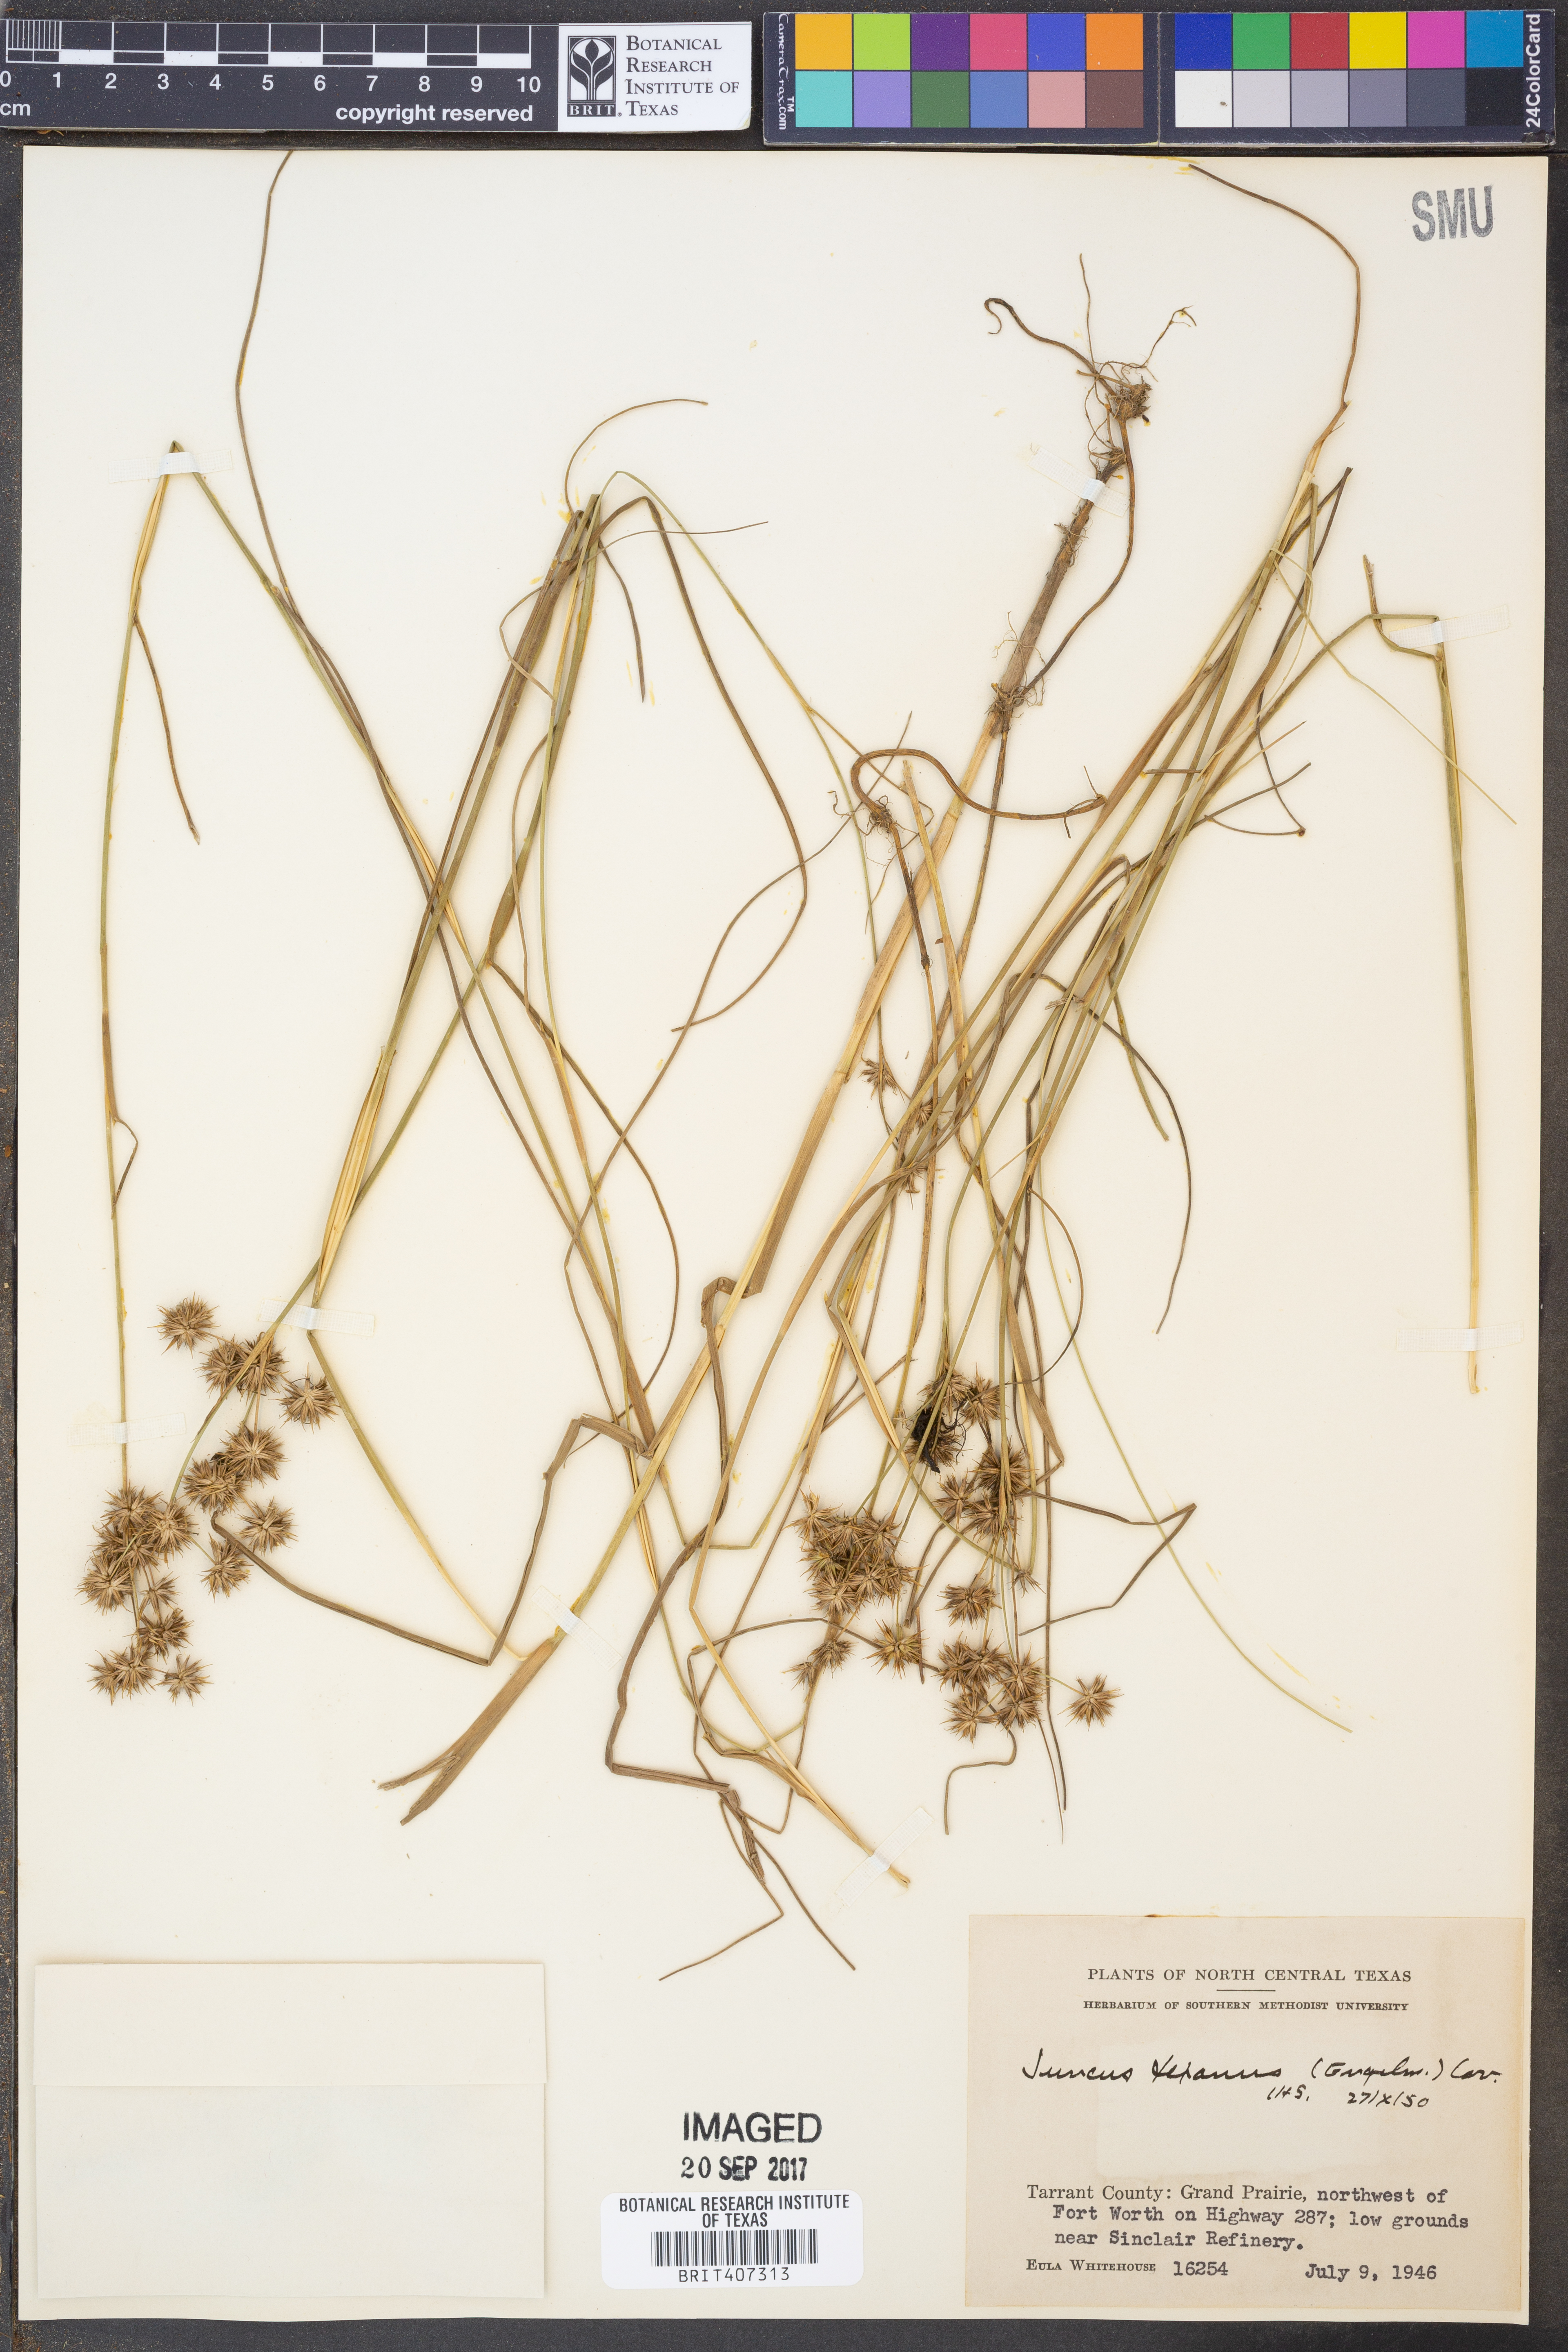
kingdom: Plantae
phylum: Tracheophyta
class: Liliopsida
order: Poales
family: Juncaceae
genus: Juncus
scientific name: Juncus texanus
